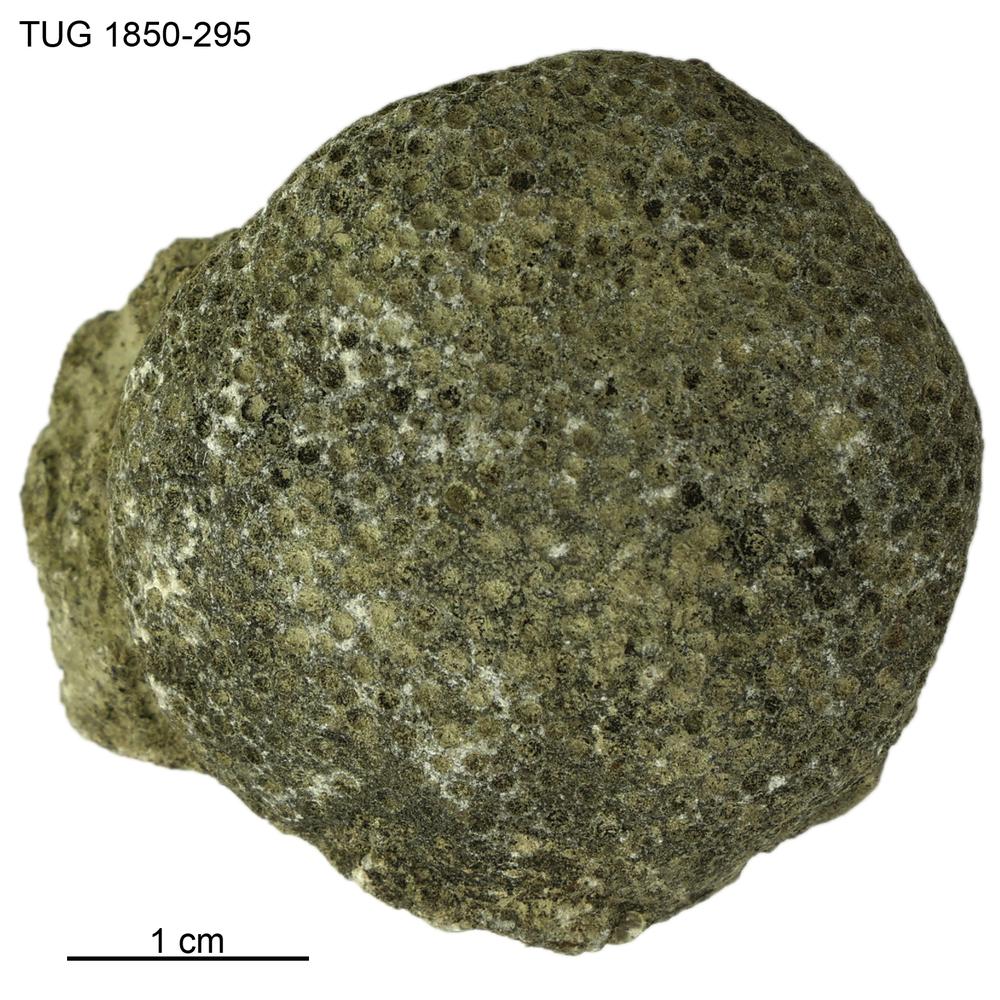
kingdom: Animalia
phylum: Cnidaria
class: Anthozoa
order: Heliolitina
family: Heliolitidae
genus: Heliolites
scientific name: Heliolites
